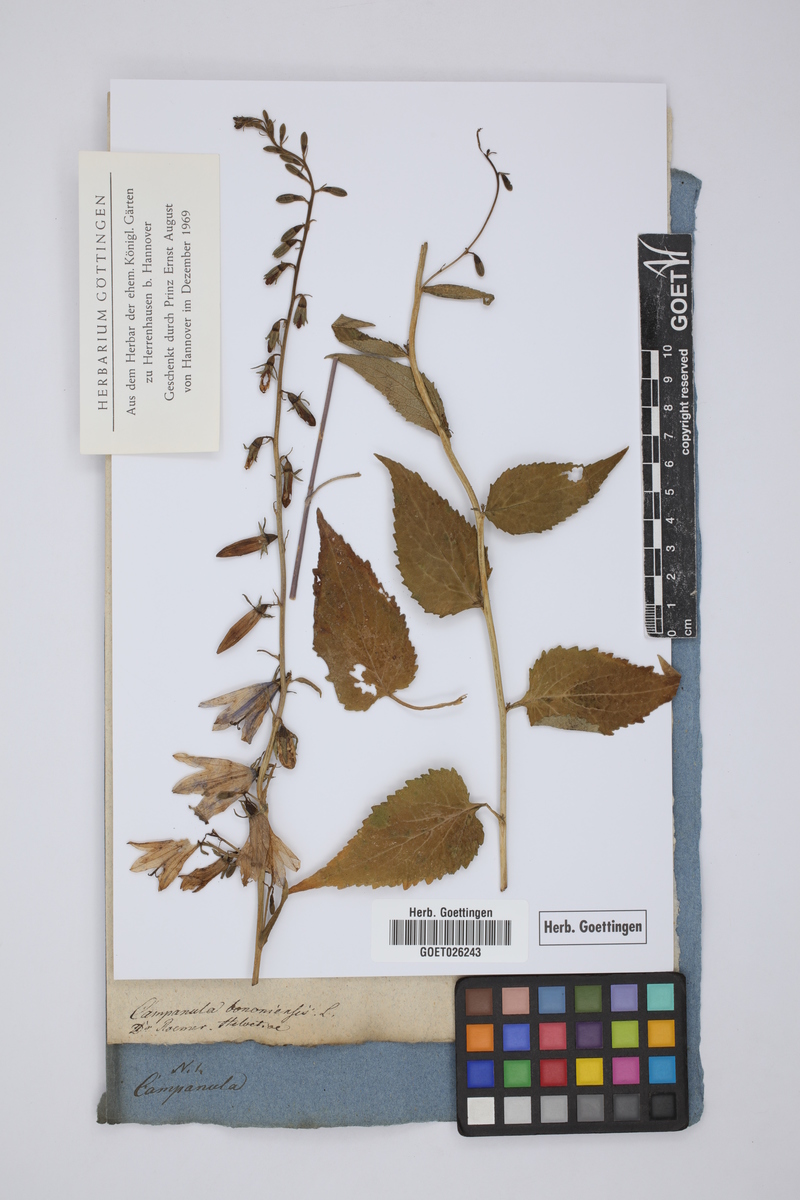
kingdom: Plantae
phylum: Tracheophyta
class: Magnoliopsida
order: Asterales
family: Campanulaceae
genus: Campanula
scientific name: Campanula bononiensis
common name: Pale bellflower
